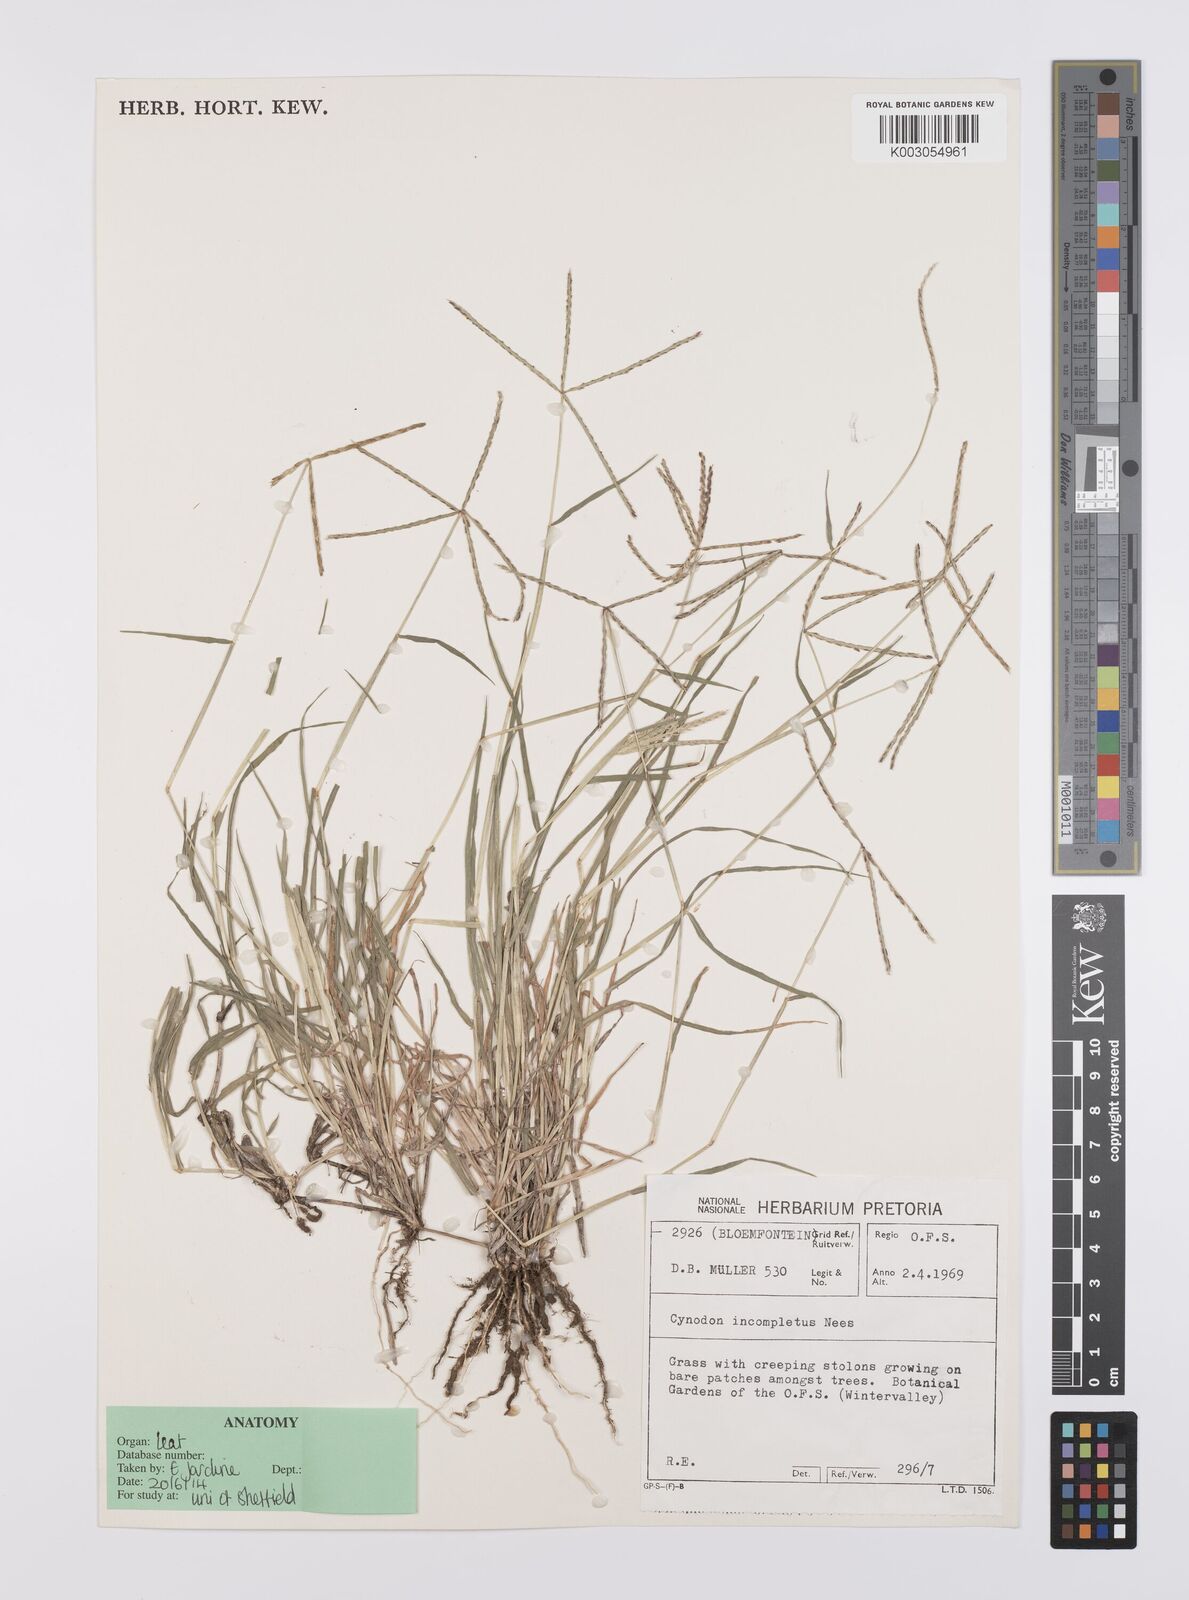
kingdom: Plantae
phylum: Tracheophyta
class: Liliopsida
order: Poales
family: Poaceae
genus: Cynodon
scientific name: Cynodon incompletus
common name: African bermuda-grass
